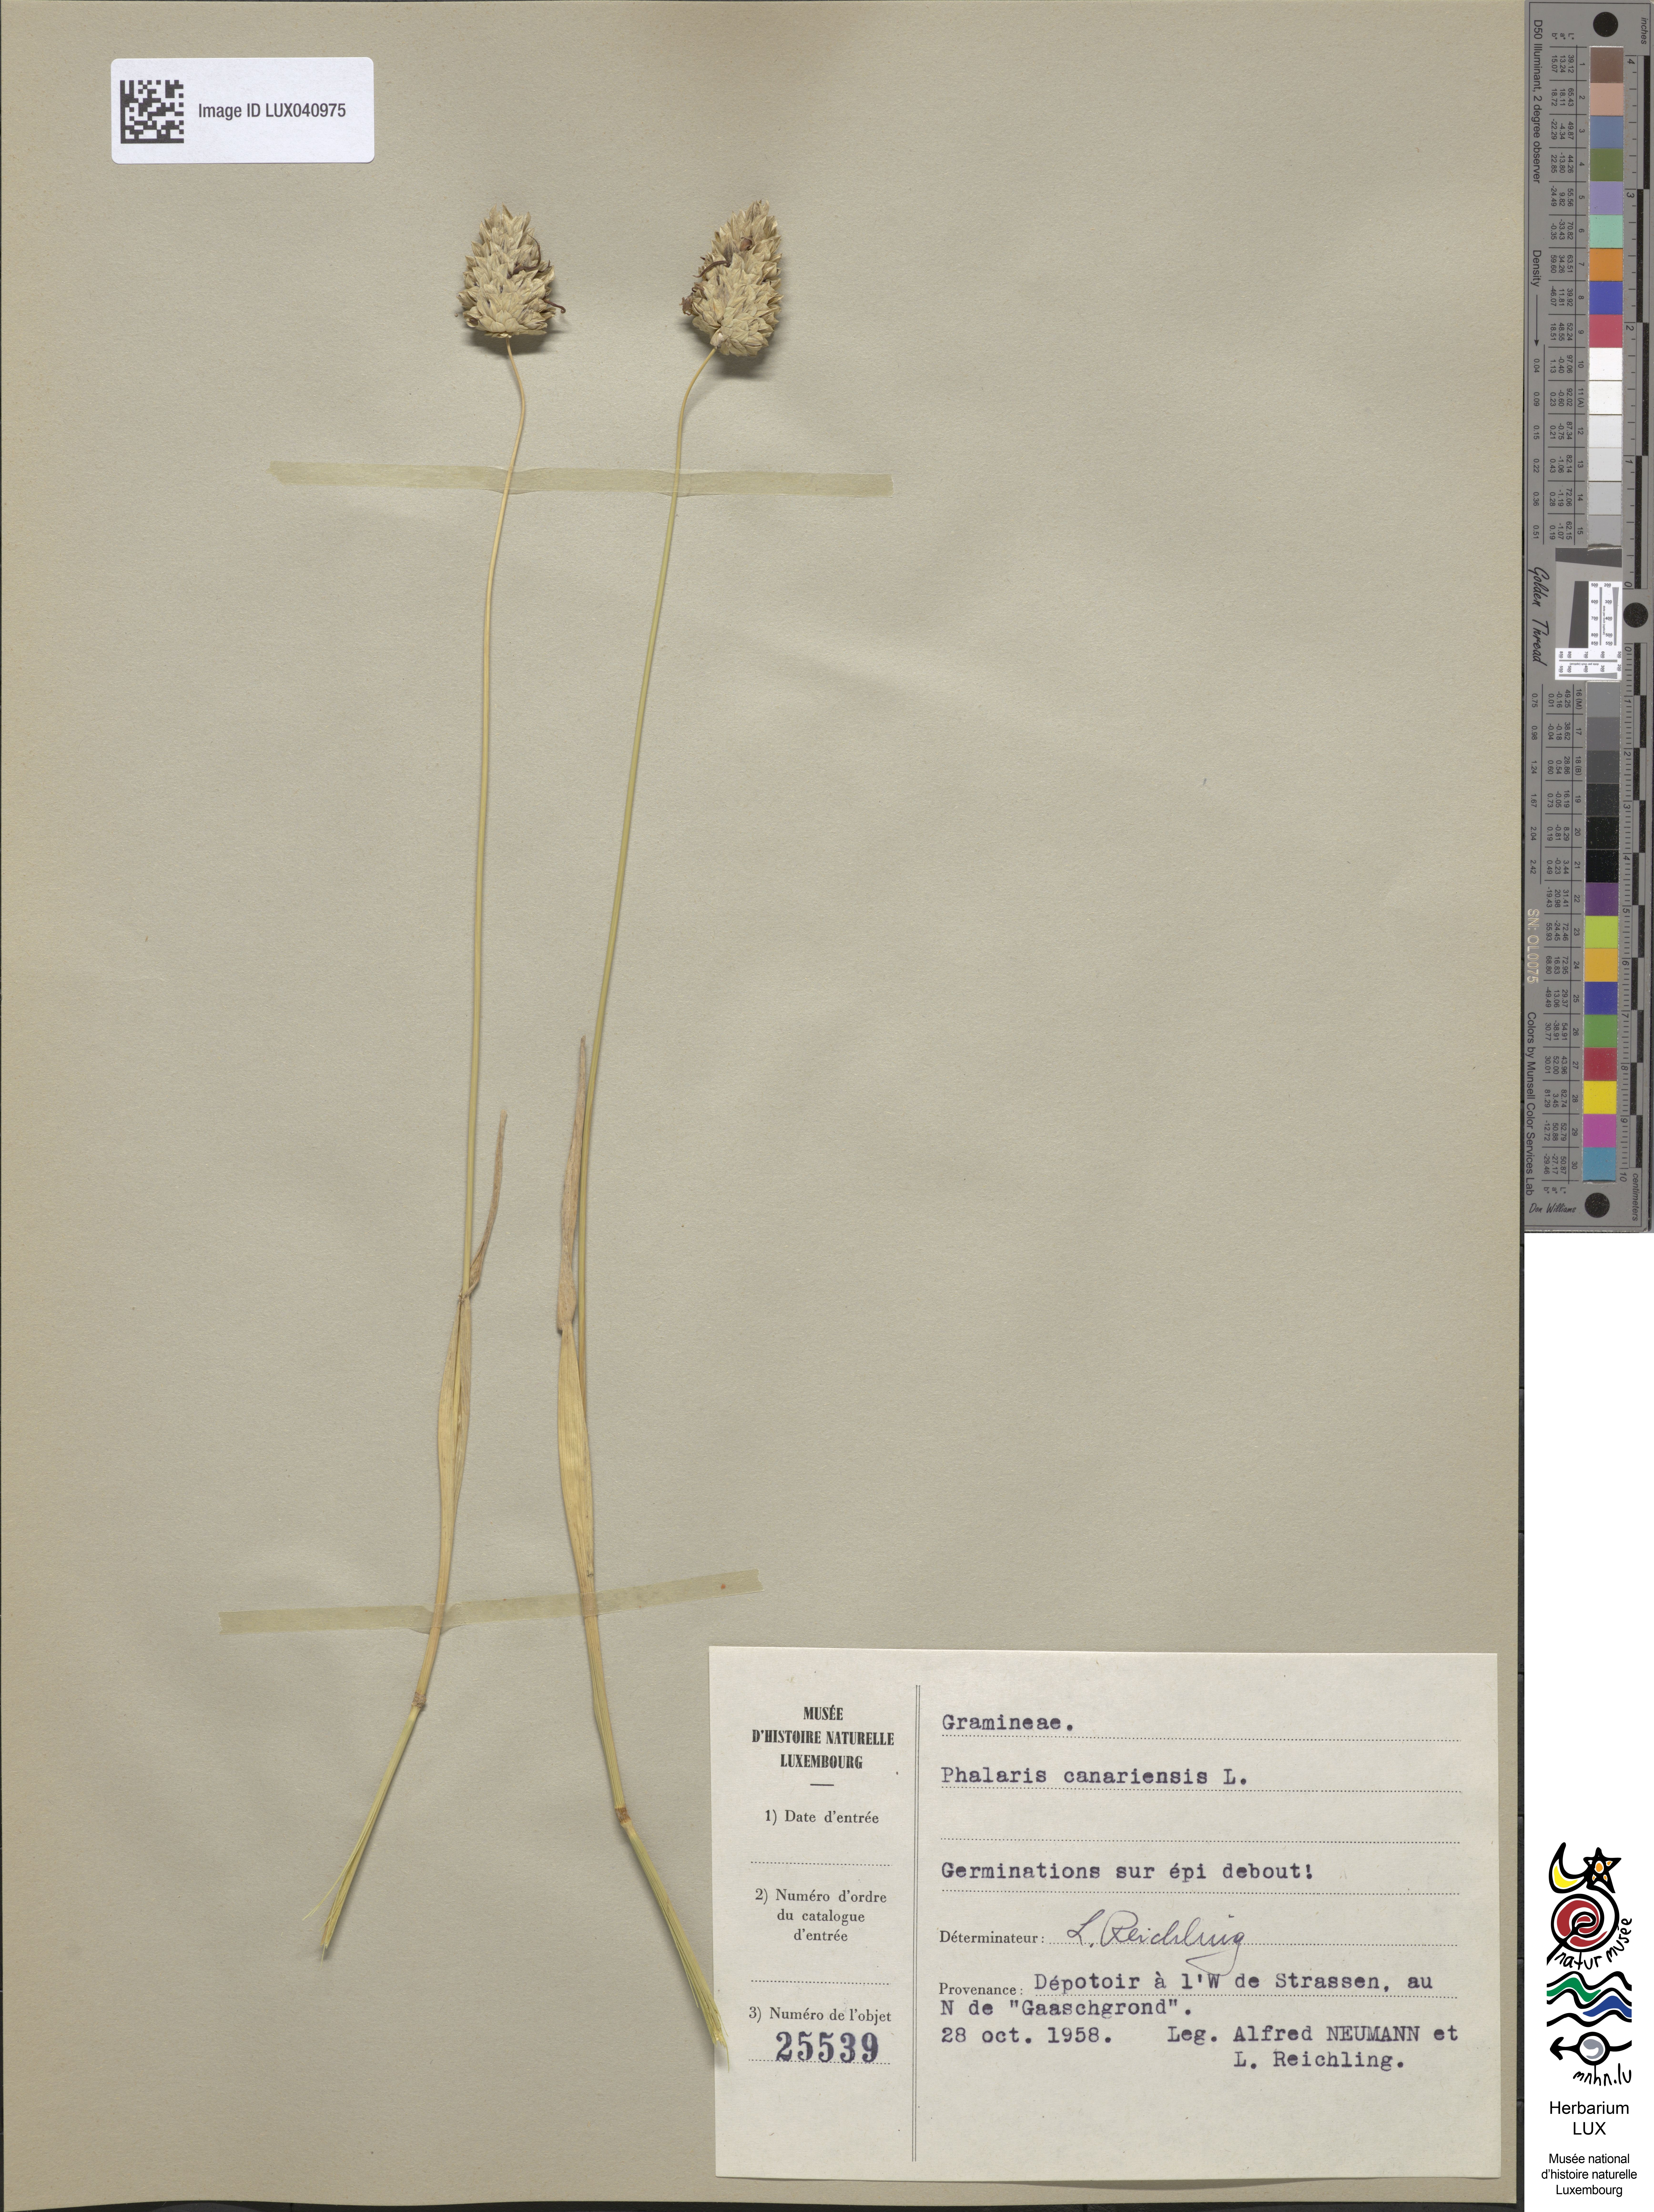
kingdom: Plantae
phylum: Tracheophyta
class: Liliopsida
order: Poales
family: Poaceae
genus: Phalaris
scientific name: Phalaris canariensis
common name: Annual canarygrass
